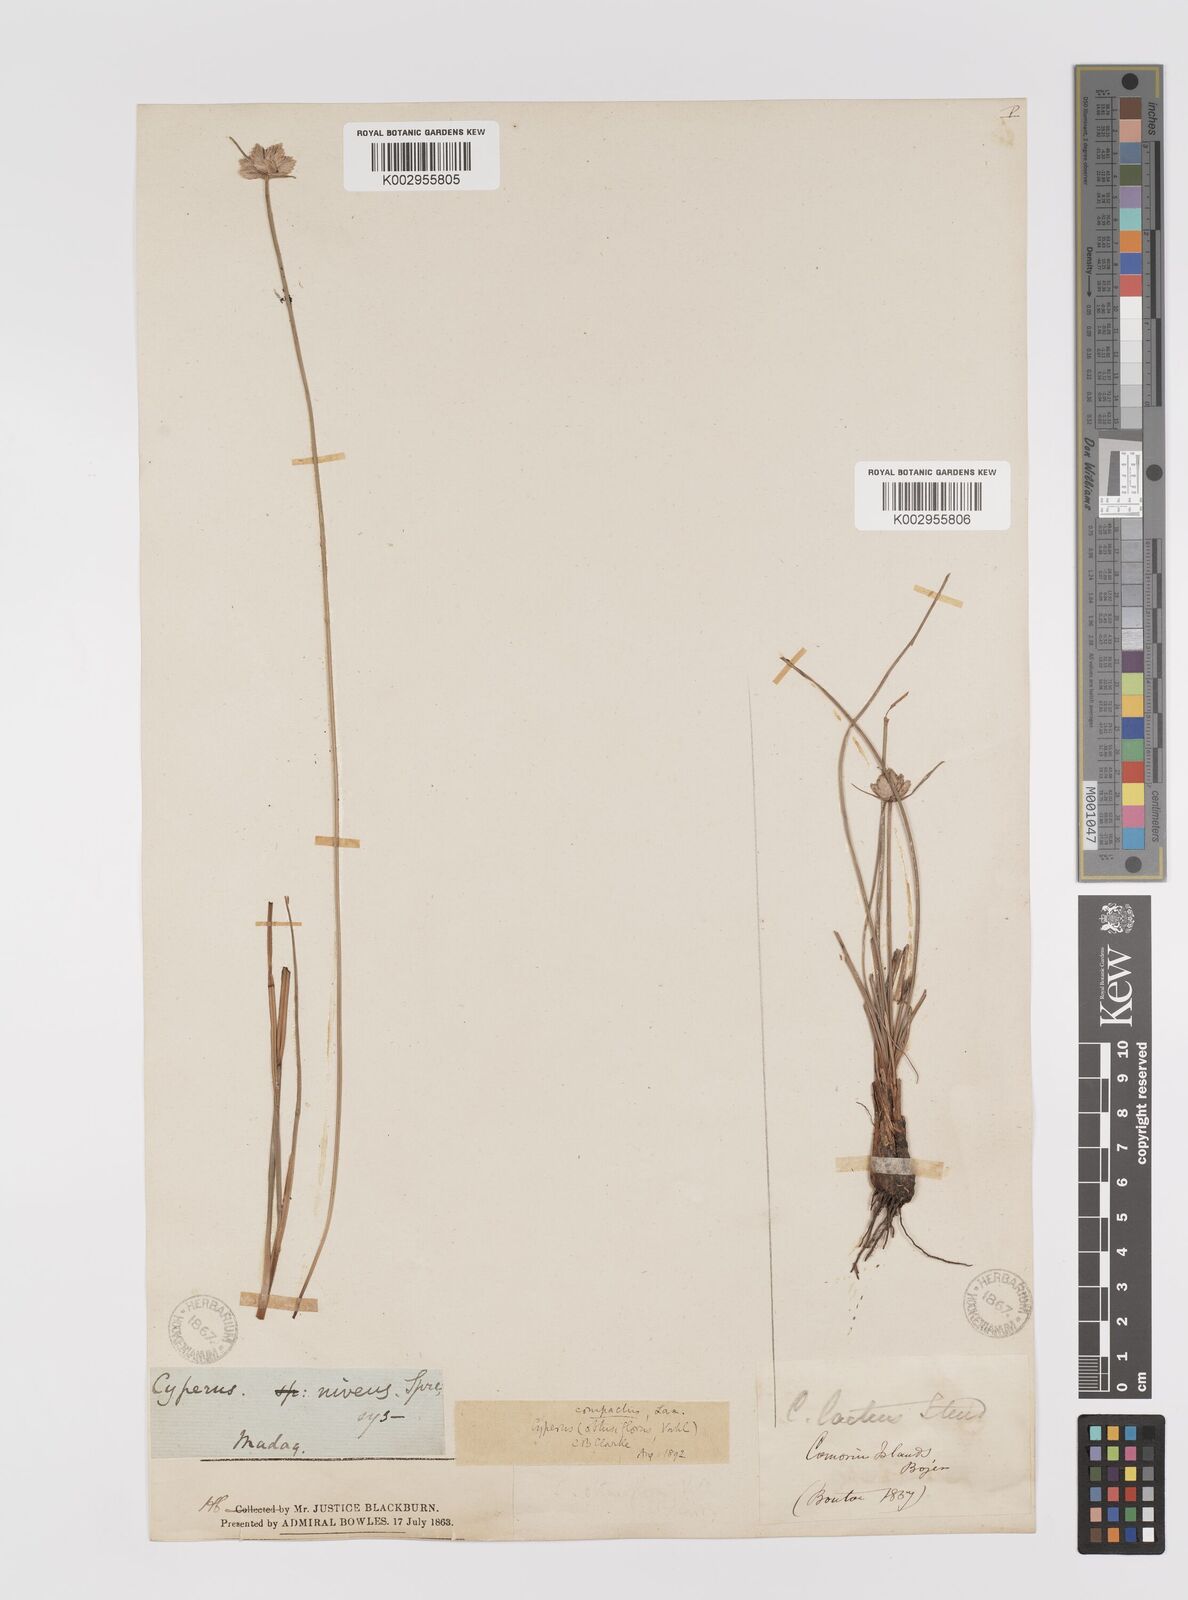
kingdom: Plantae
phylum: Tracheophyta
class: Liliopsida
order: Poales
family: Cyperaceae
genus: Cyperus
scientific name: Cyperus niveus
